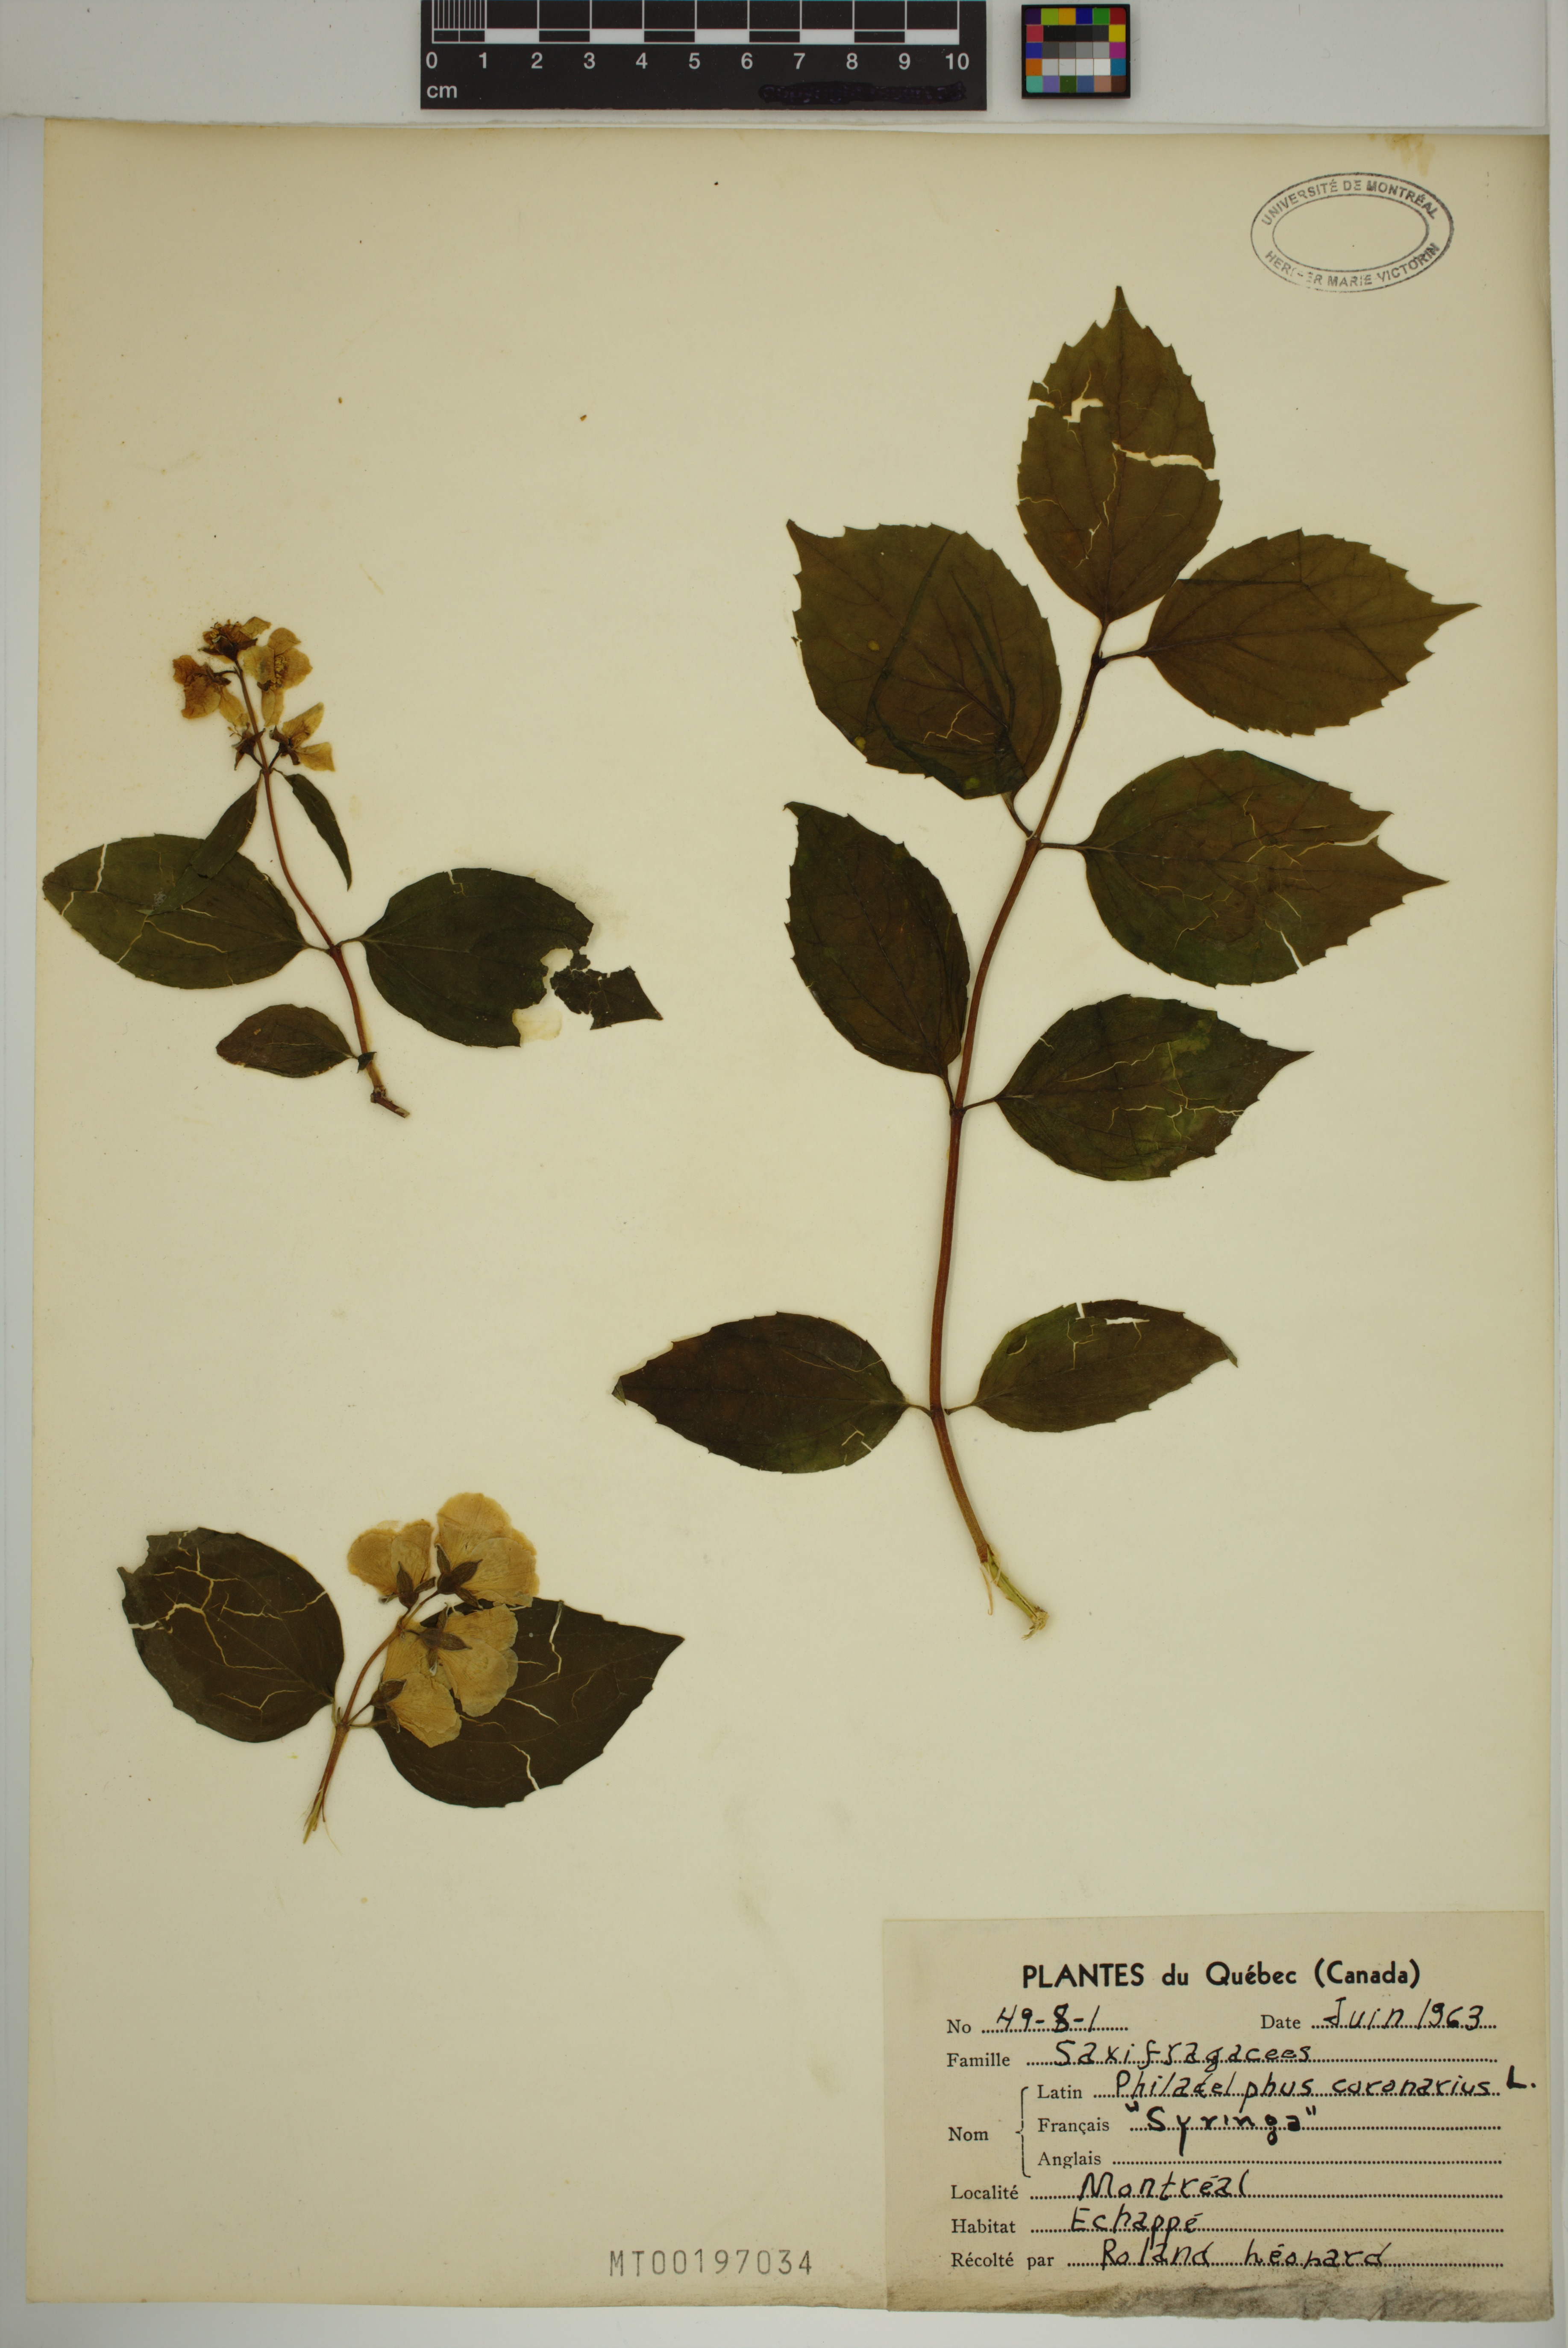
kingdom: Plantae
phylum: Tracheophyta
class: Magnoliopsida
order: Cornales
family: Hydrangeaceae
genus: Philadelphus
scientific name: Philadelphus coronarius
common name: Mock orange
